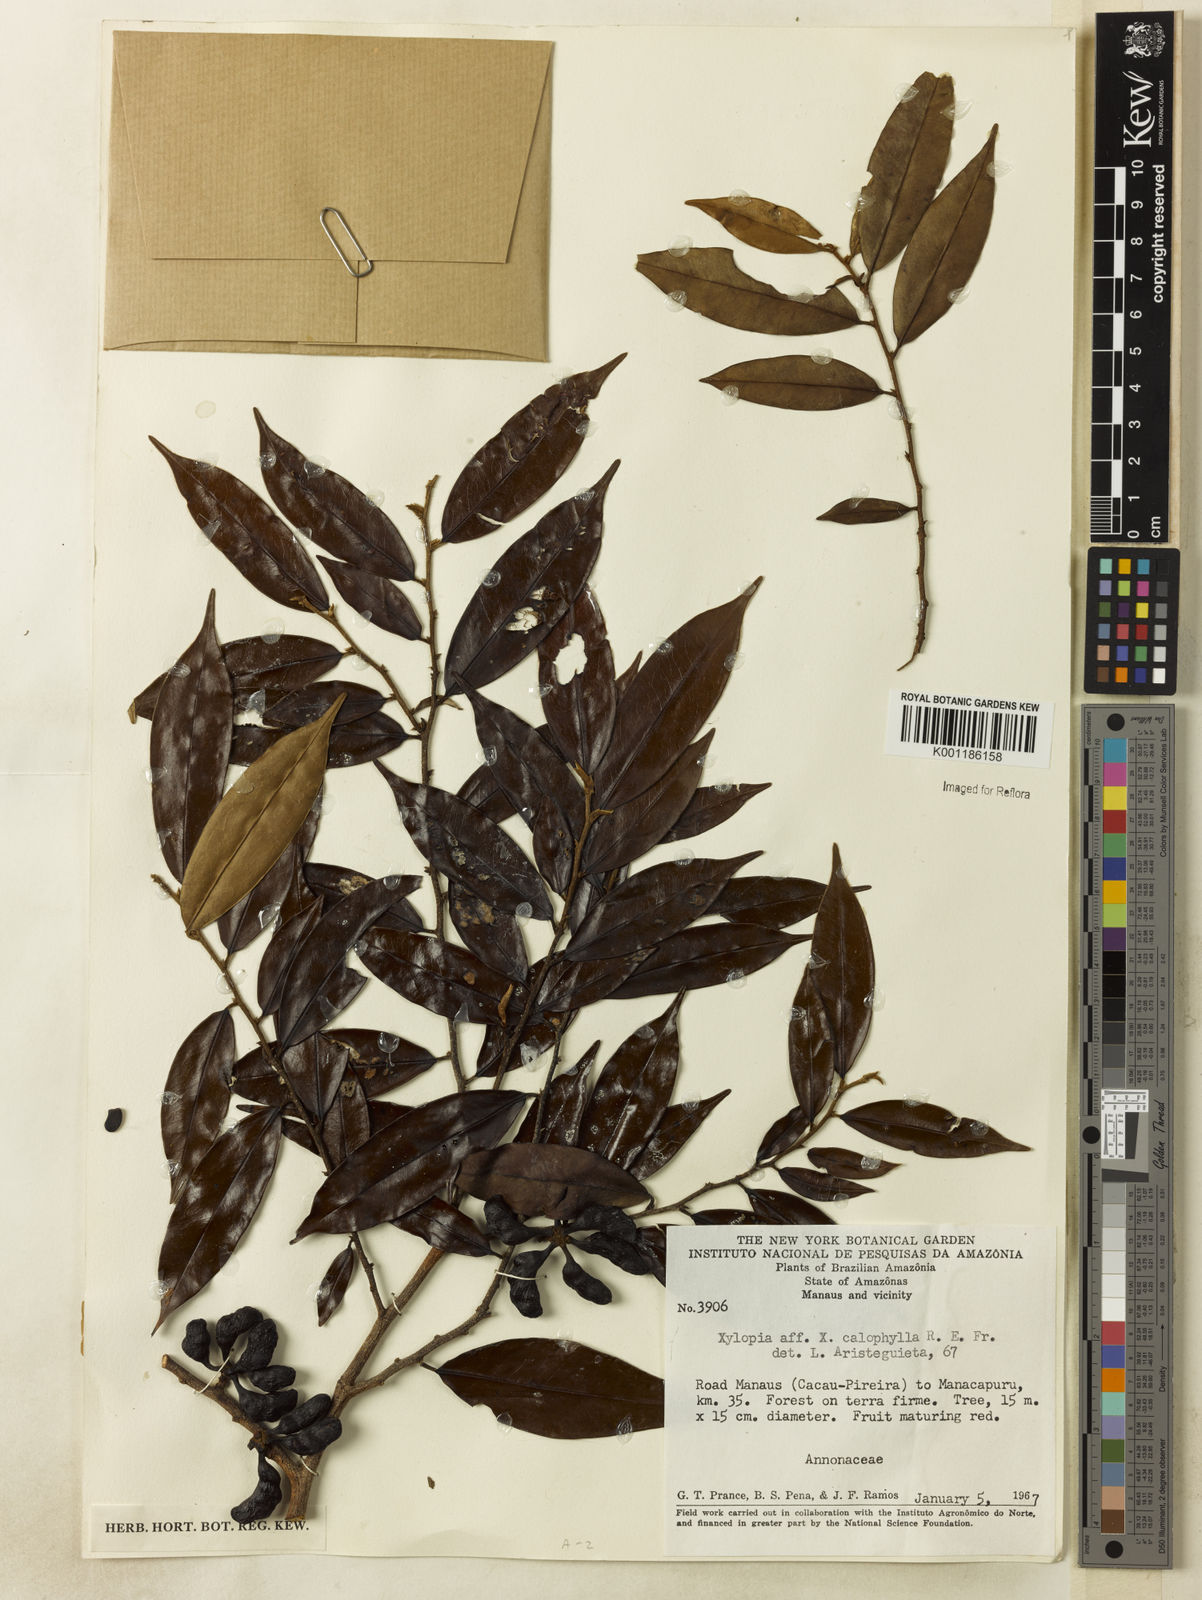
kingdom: Plantae
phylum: Tracheophyta
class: Magnoliopsida
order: Magnoliales
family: Annonaceae
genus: Xylopia
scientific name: Xylopia calophylla
